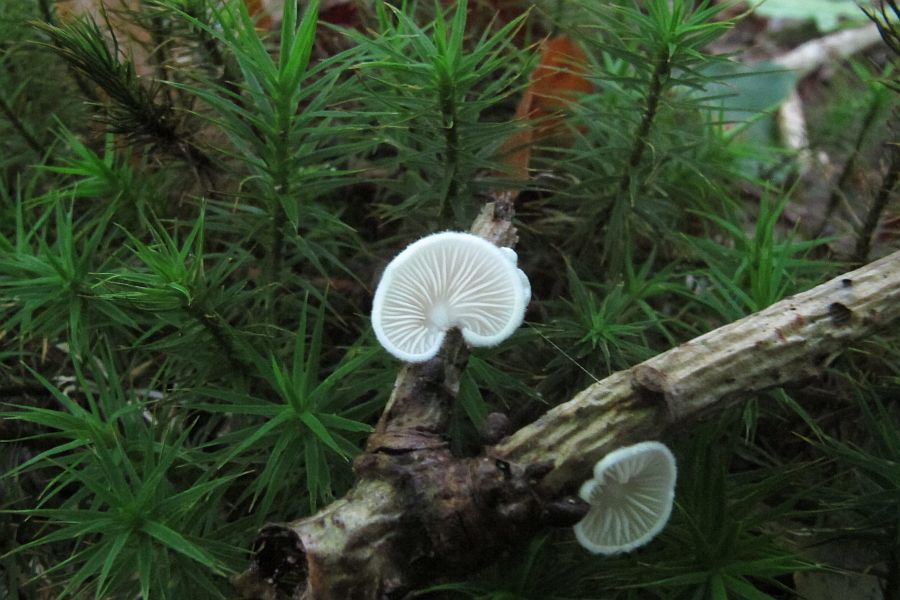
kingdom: Fungi
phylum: Basidiomycota
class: Agaricomycetes
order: Agaricales
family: Crepidotaceae
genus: Crepidotus
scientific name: Crepidotus cesatii
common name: almindelig muslingesvamp
